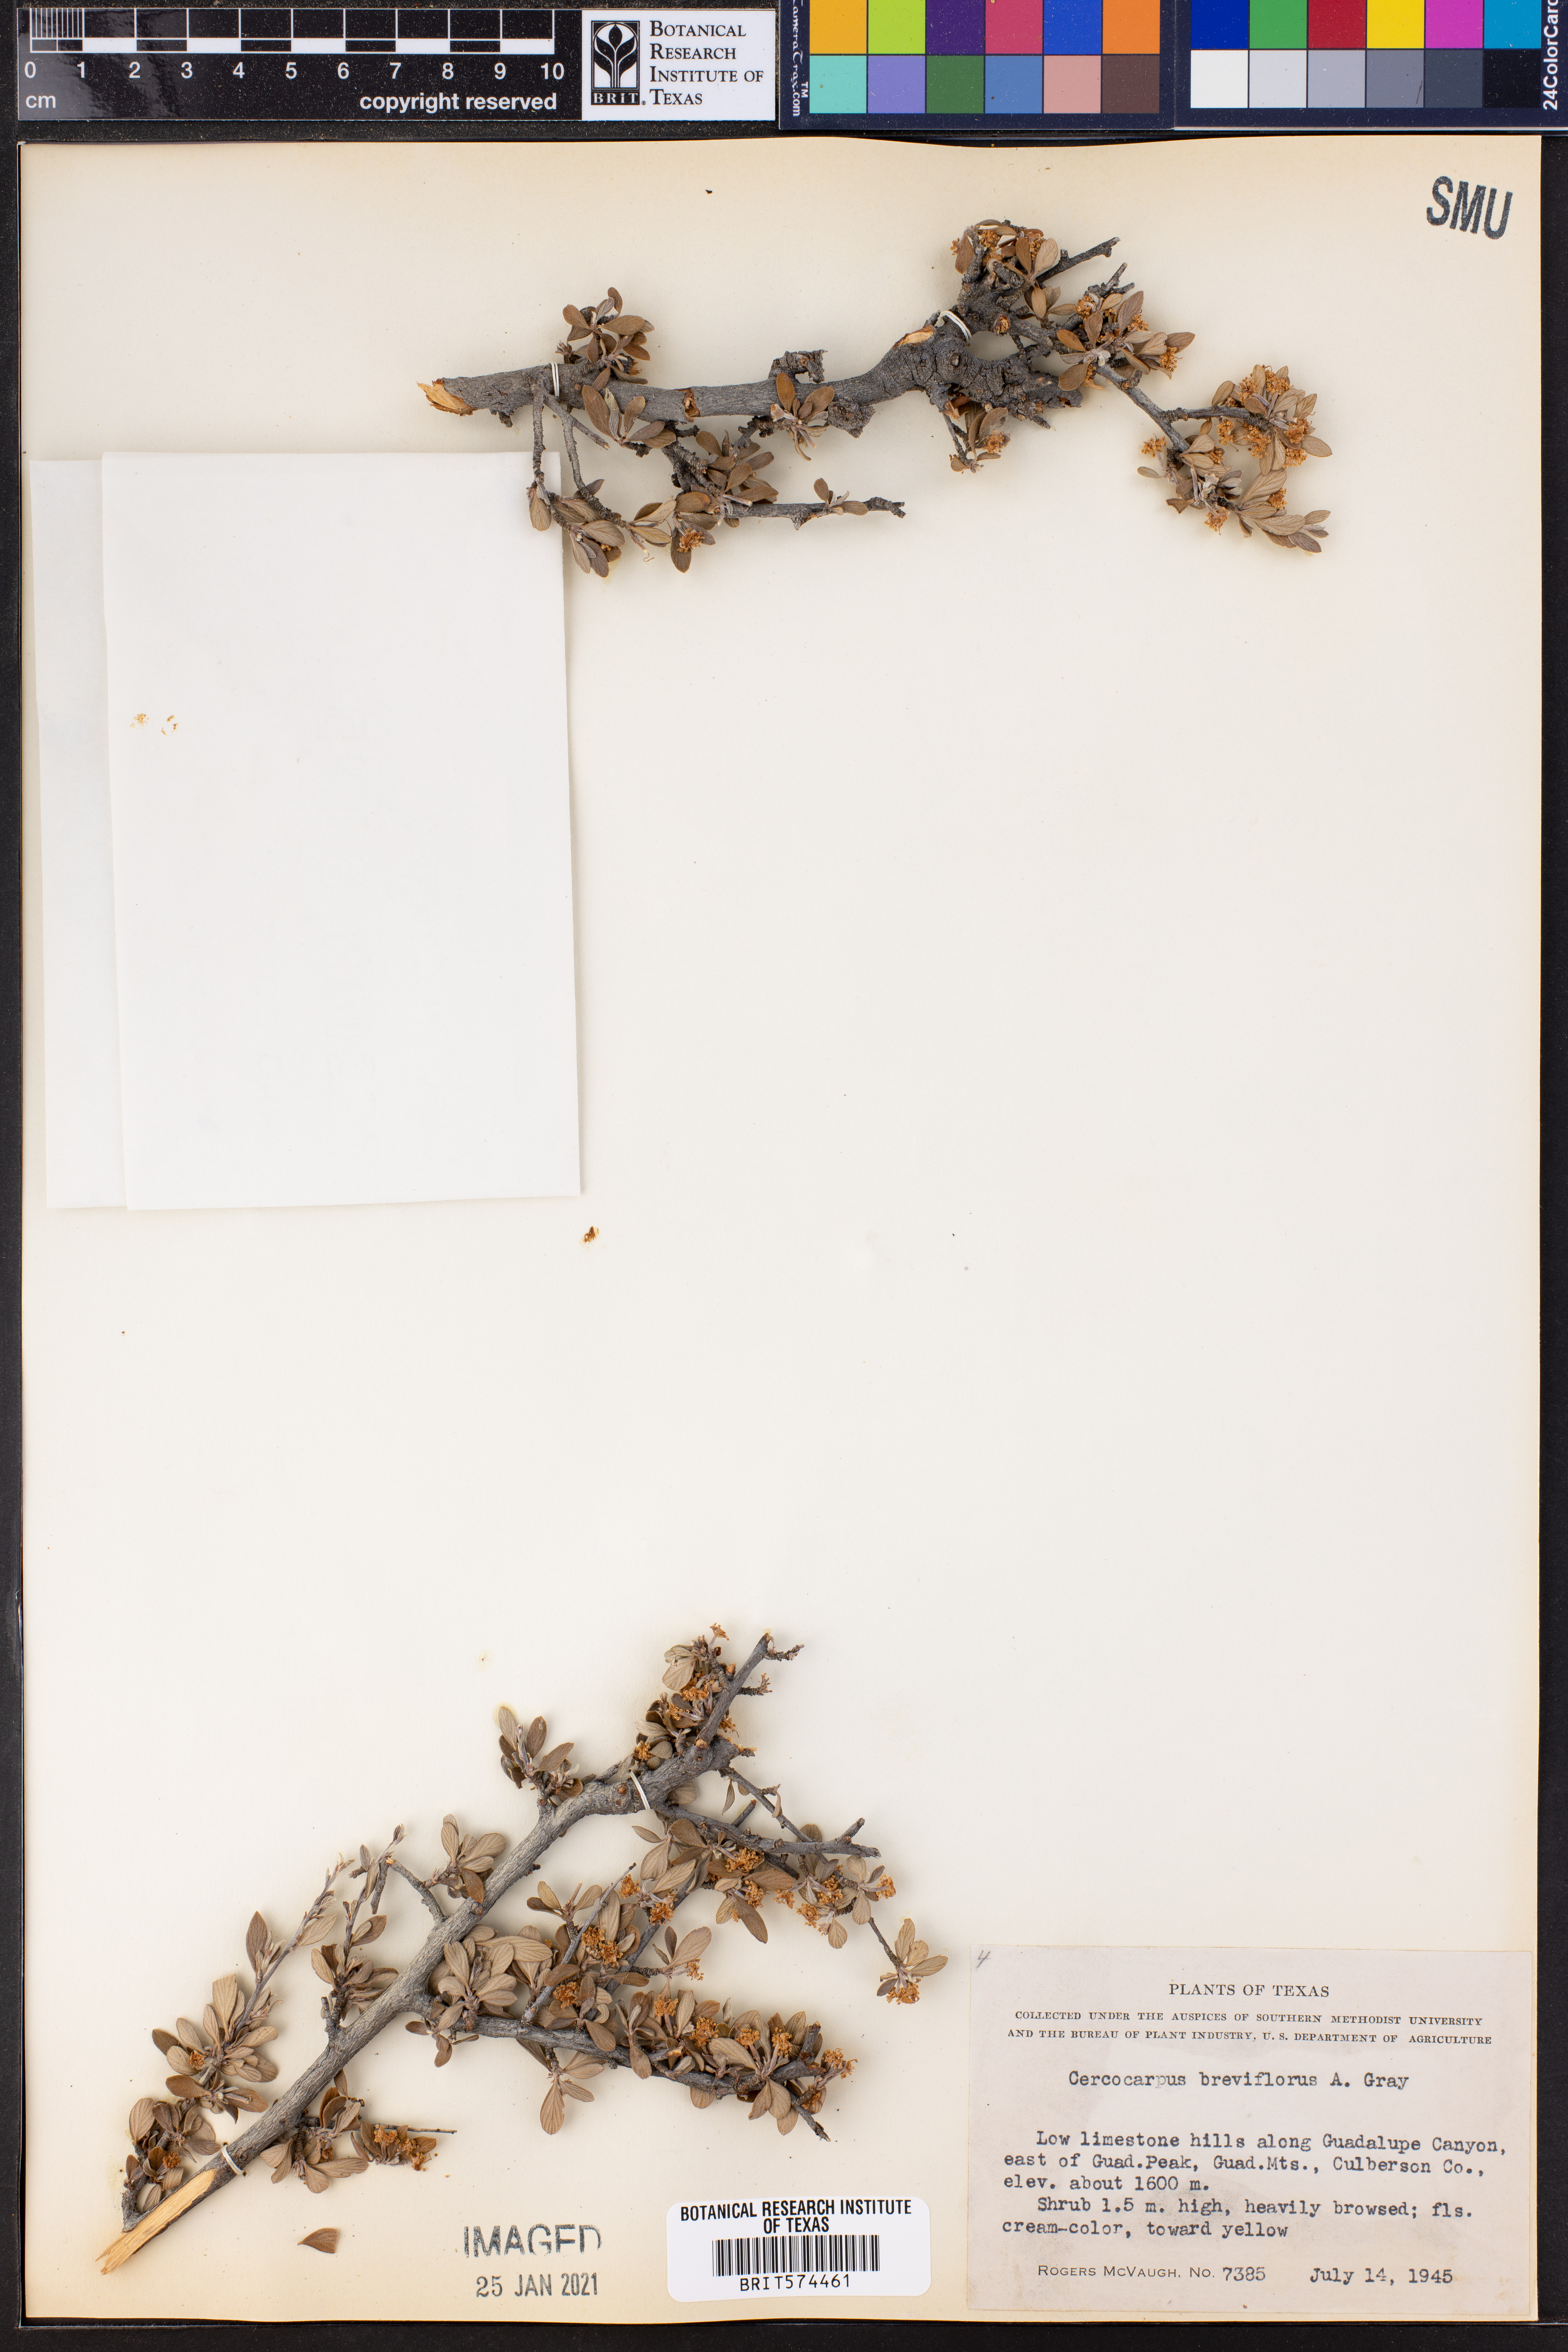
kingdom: Plantae
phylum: Tracheophyta
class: Magnoliopsida
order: Rosales
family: Rosaceae
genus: Cercocarpus
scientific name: Cercocarpus breviflorus
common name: Wright's mountain-mahogany
